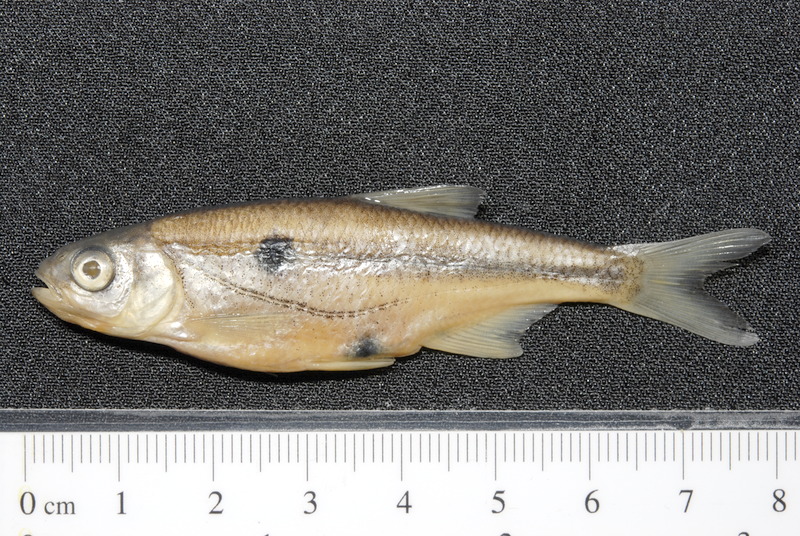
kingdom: Animalia
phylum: Chordata
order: Cypriniformes
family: Cyprinidae
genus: Alburnoides
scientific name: Alburnoides bipunctatus
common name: Spirlin
